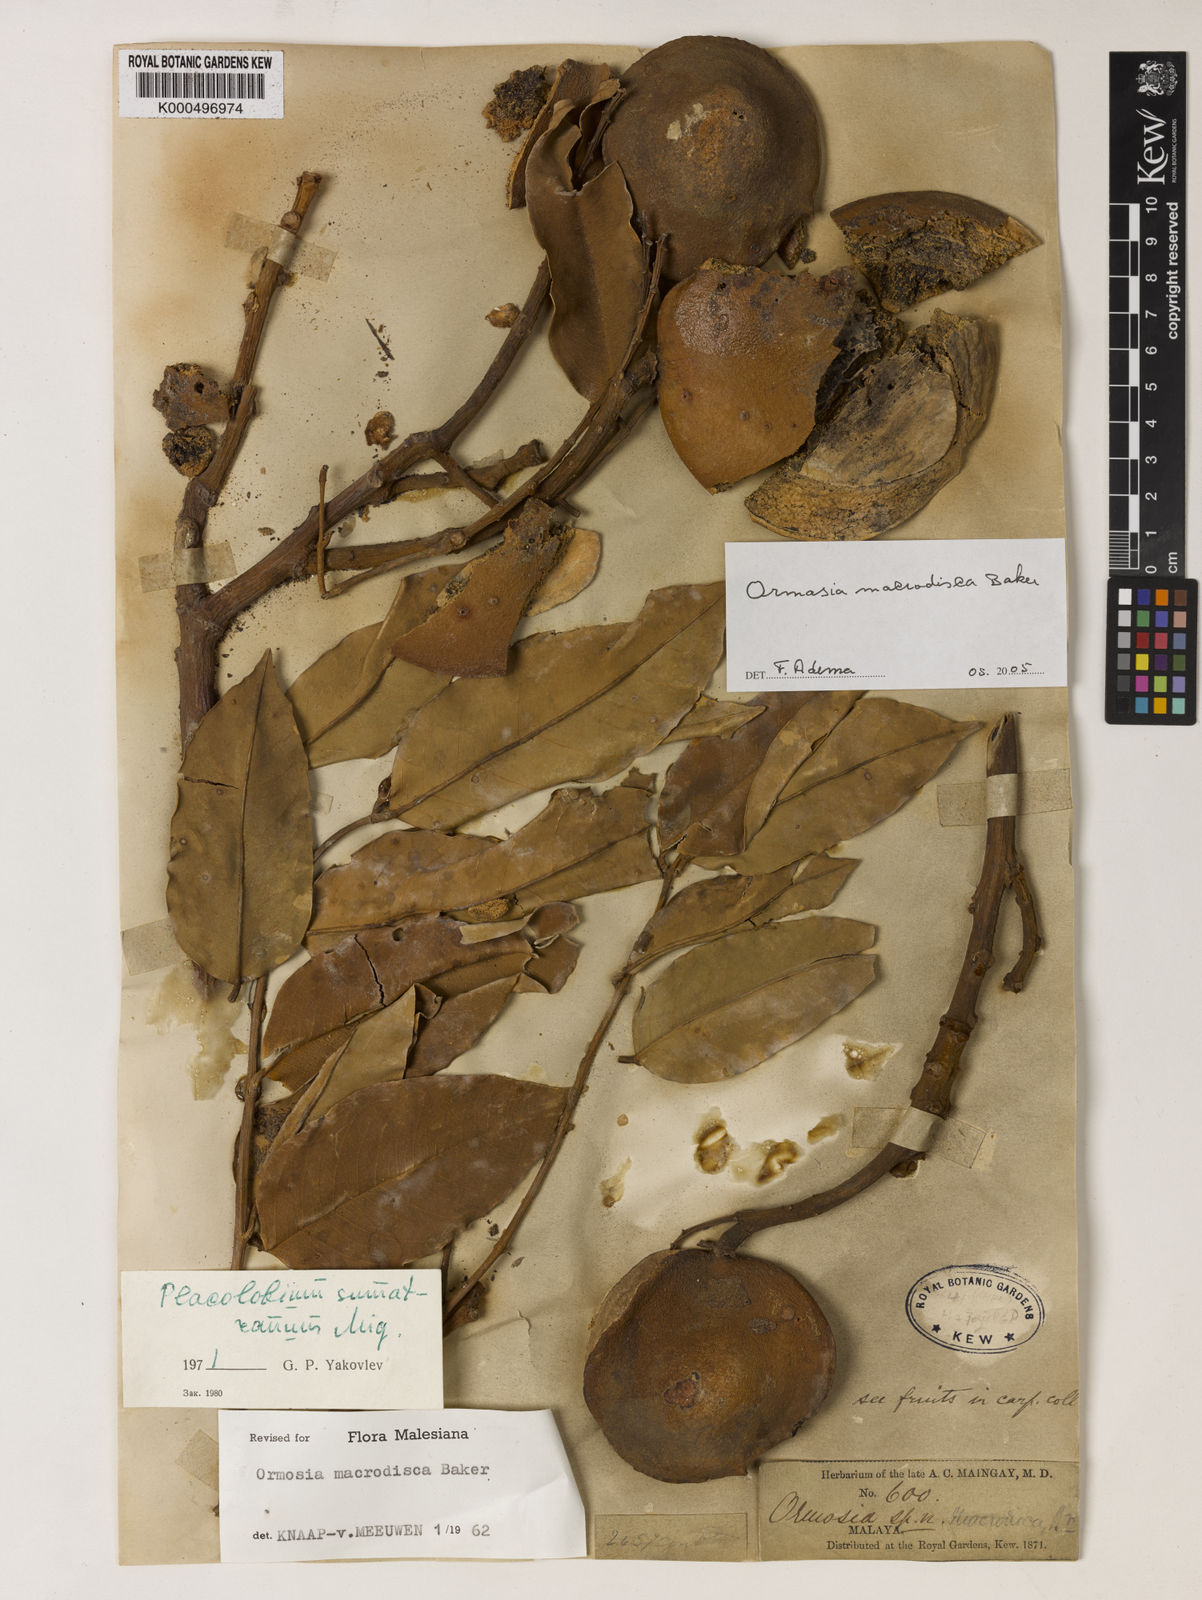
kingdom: Plantae
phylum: Tracheophyta
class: Magnoliopsida
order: Fabales
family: Fabaceae
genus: Ormosia
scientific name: Ormosia macrodisca
